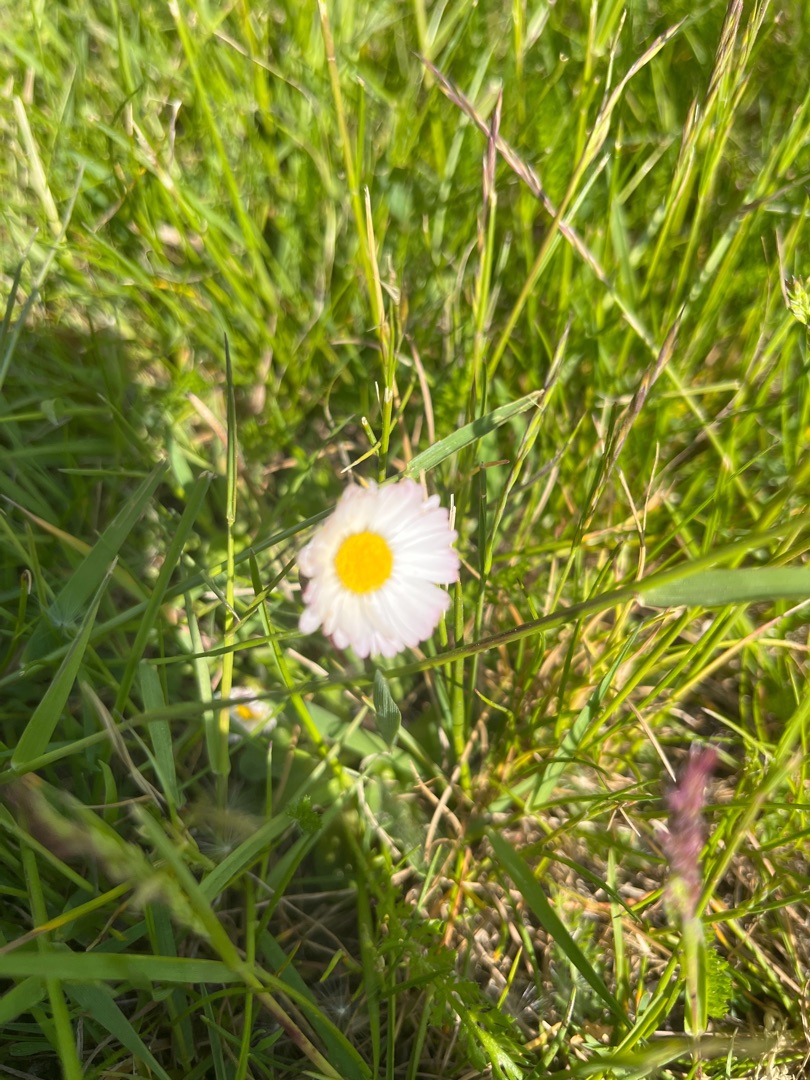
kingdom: Plantae
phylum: Tracheophyta
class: Magnoliopsida
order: Asterales
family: Asteraceae
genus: Bellis
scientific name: Bellis perennis
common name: Tusindfryd
